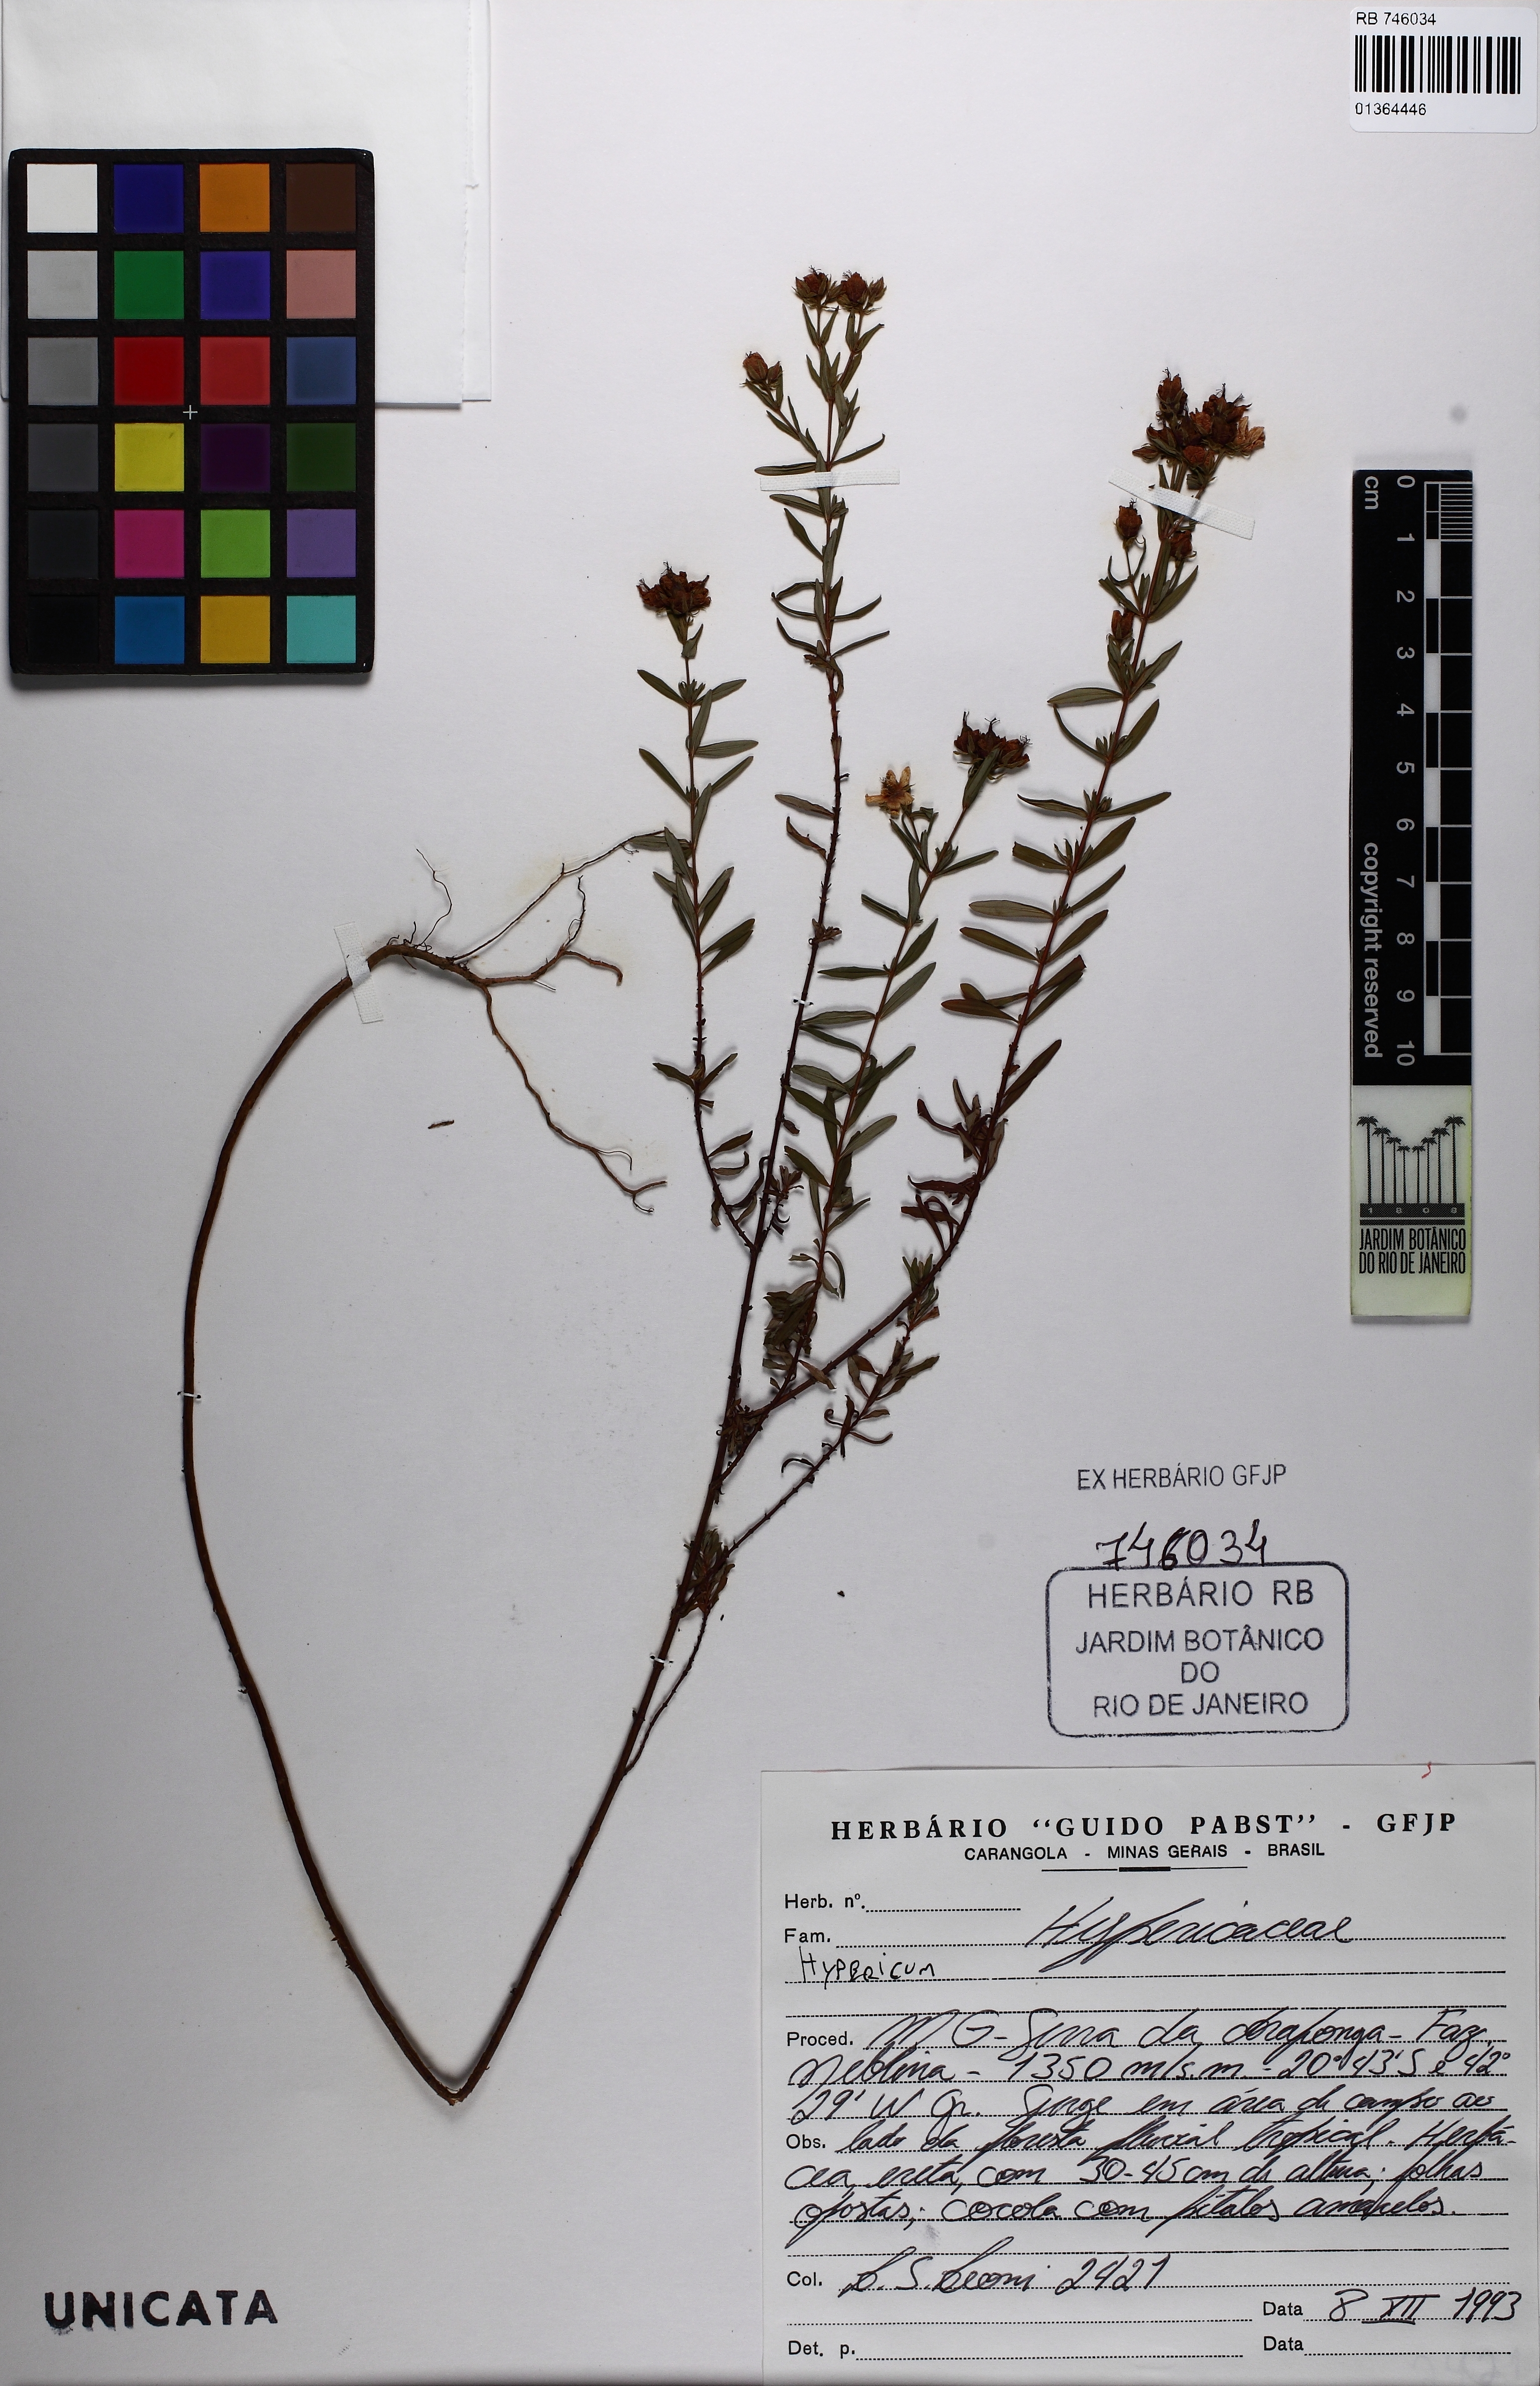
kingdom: Plantae
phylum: Tracheophyta
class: Magnoliopsida
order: Malpighiales
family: Hypericaceae
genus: Hypericum
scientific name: Hypericum
